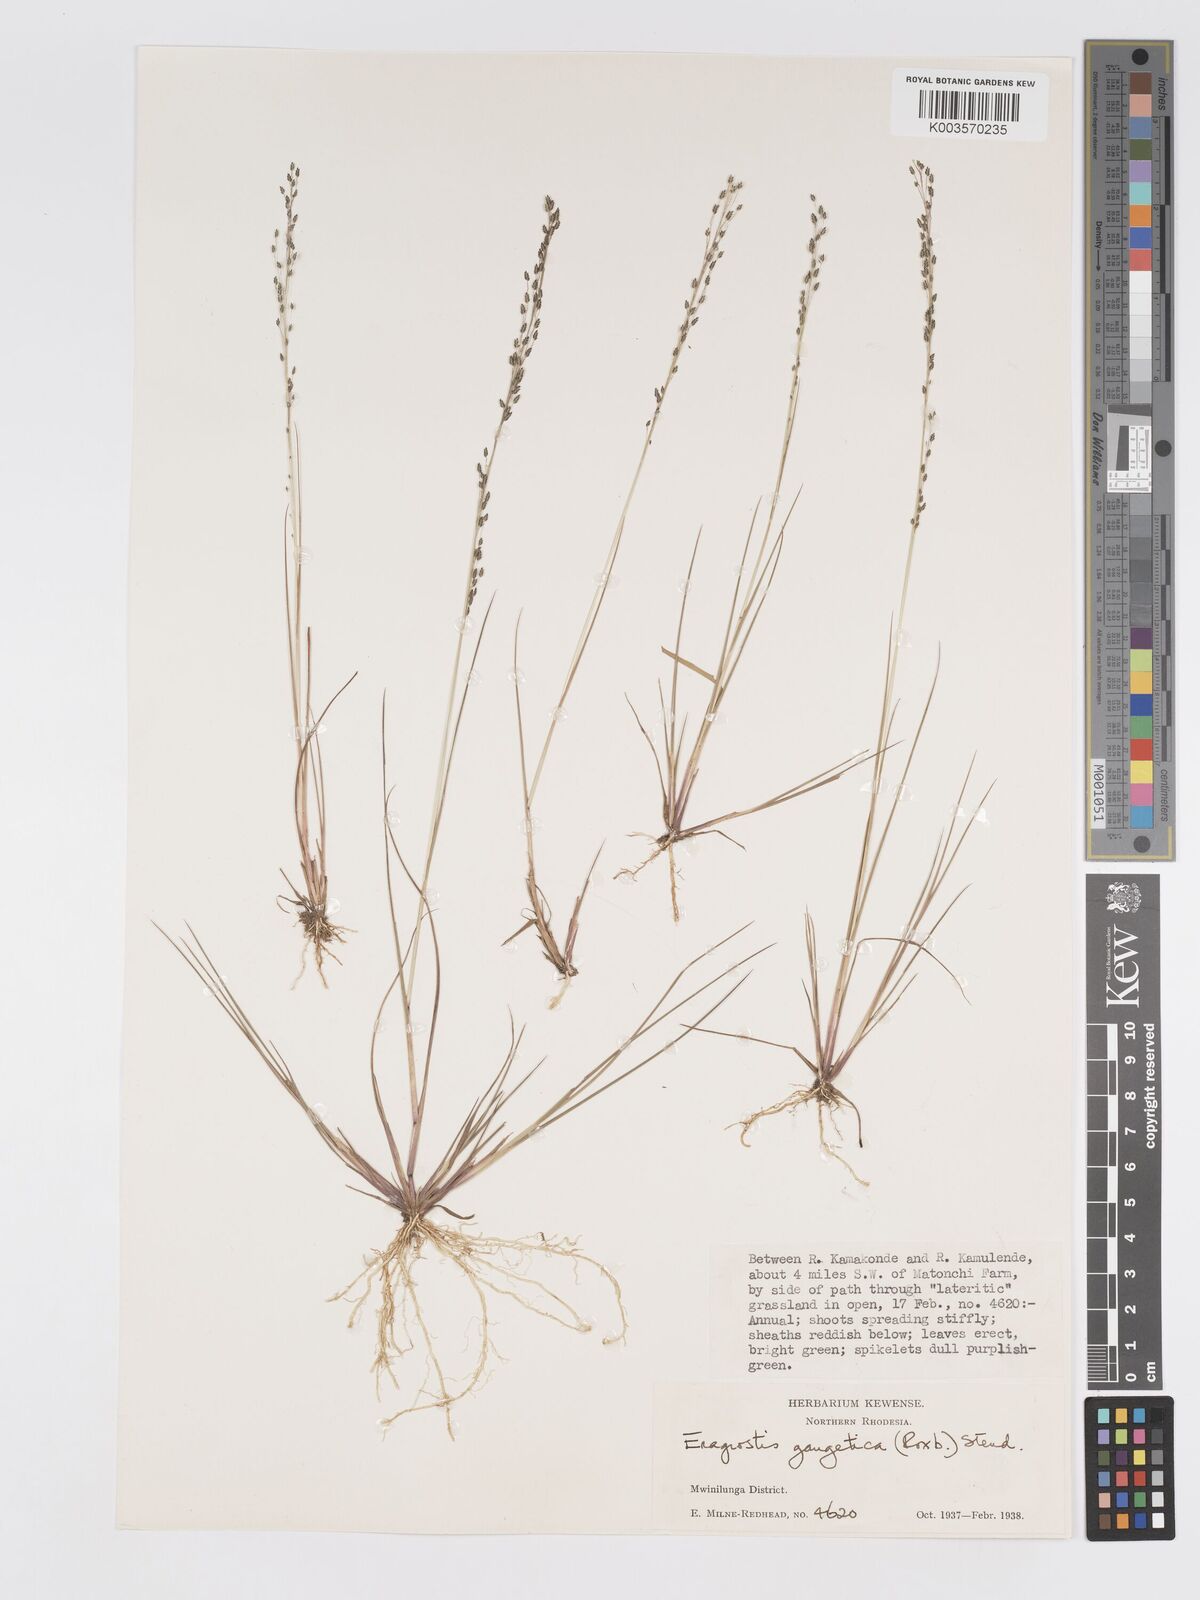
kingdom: Plantae
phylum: Tracheophyta
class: Liliopsida
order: Poales
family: Poaceae
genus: Eragrostis
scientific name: Eragrostis gangetica
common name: Slimflower lovegrass
